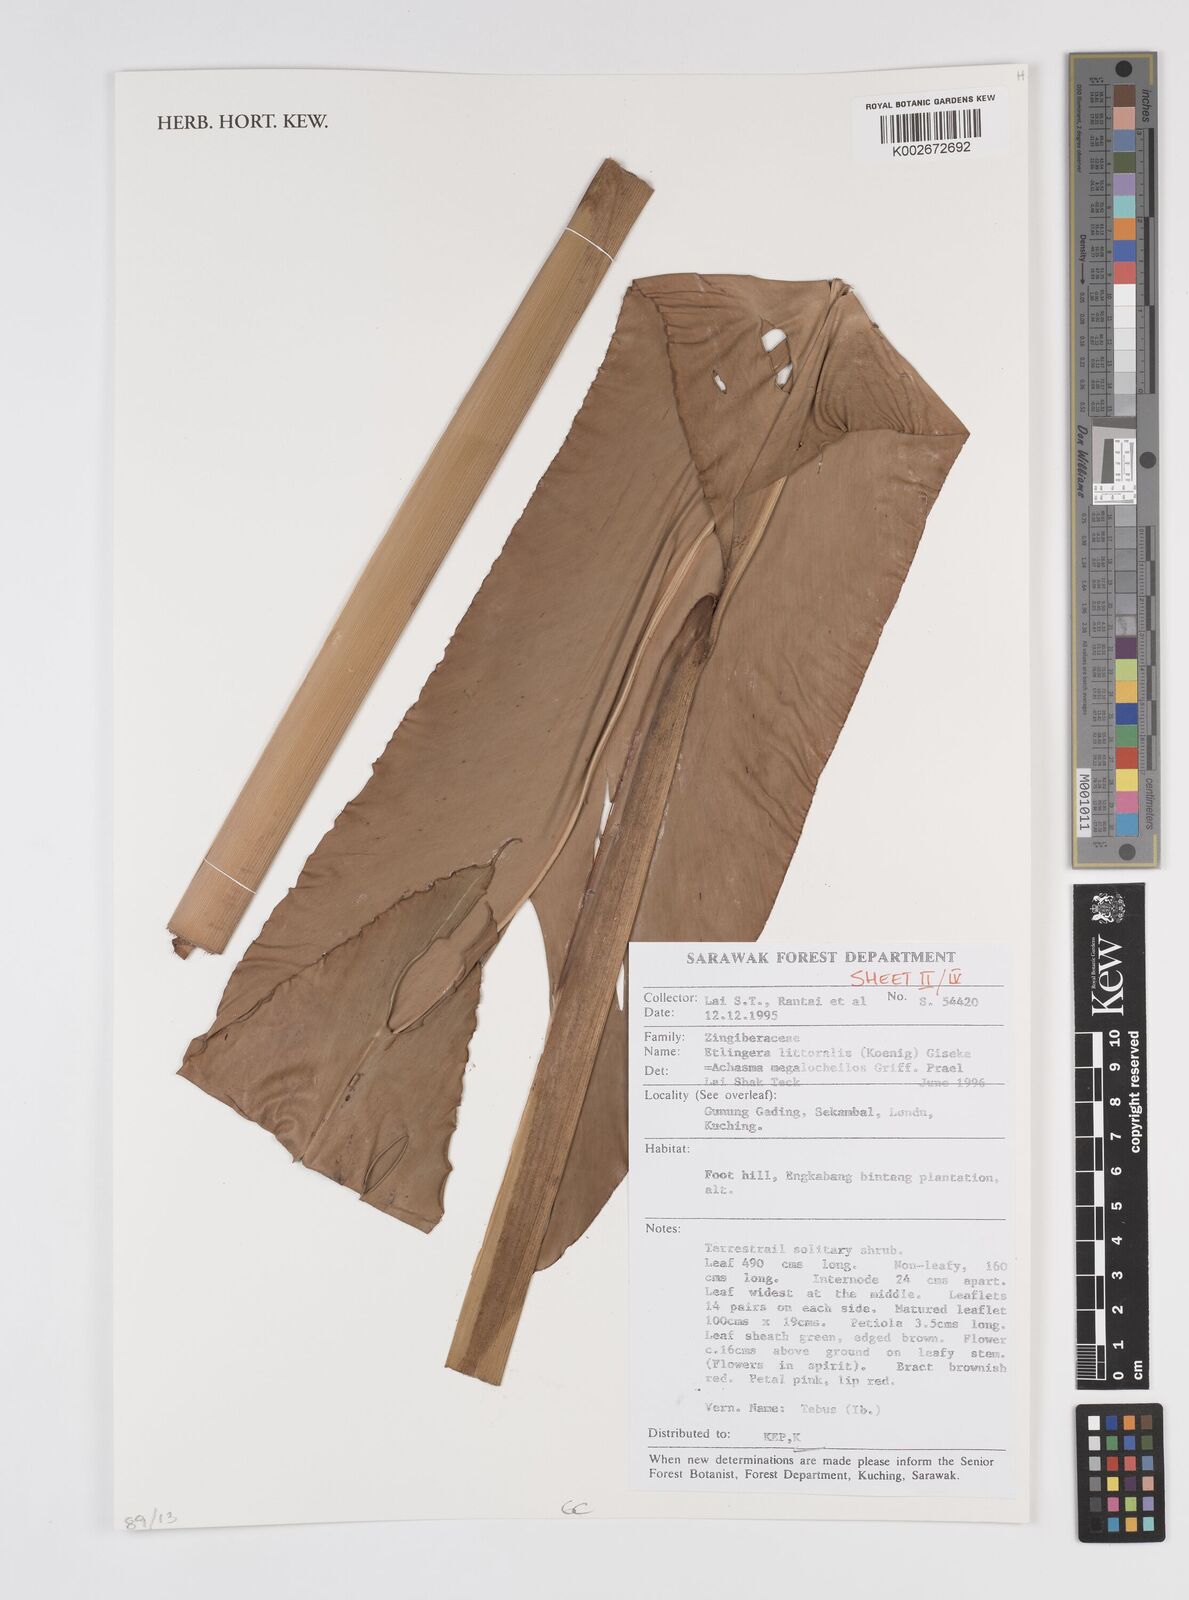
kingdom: Plantae
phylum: Tracheophyta
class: Liliopsida
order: Zingiberales
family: Zingiberaceae
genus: Etlingera
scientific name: Etlingera littoralis
